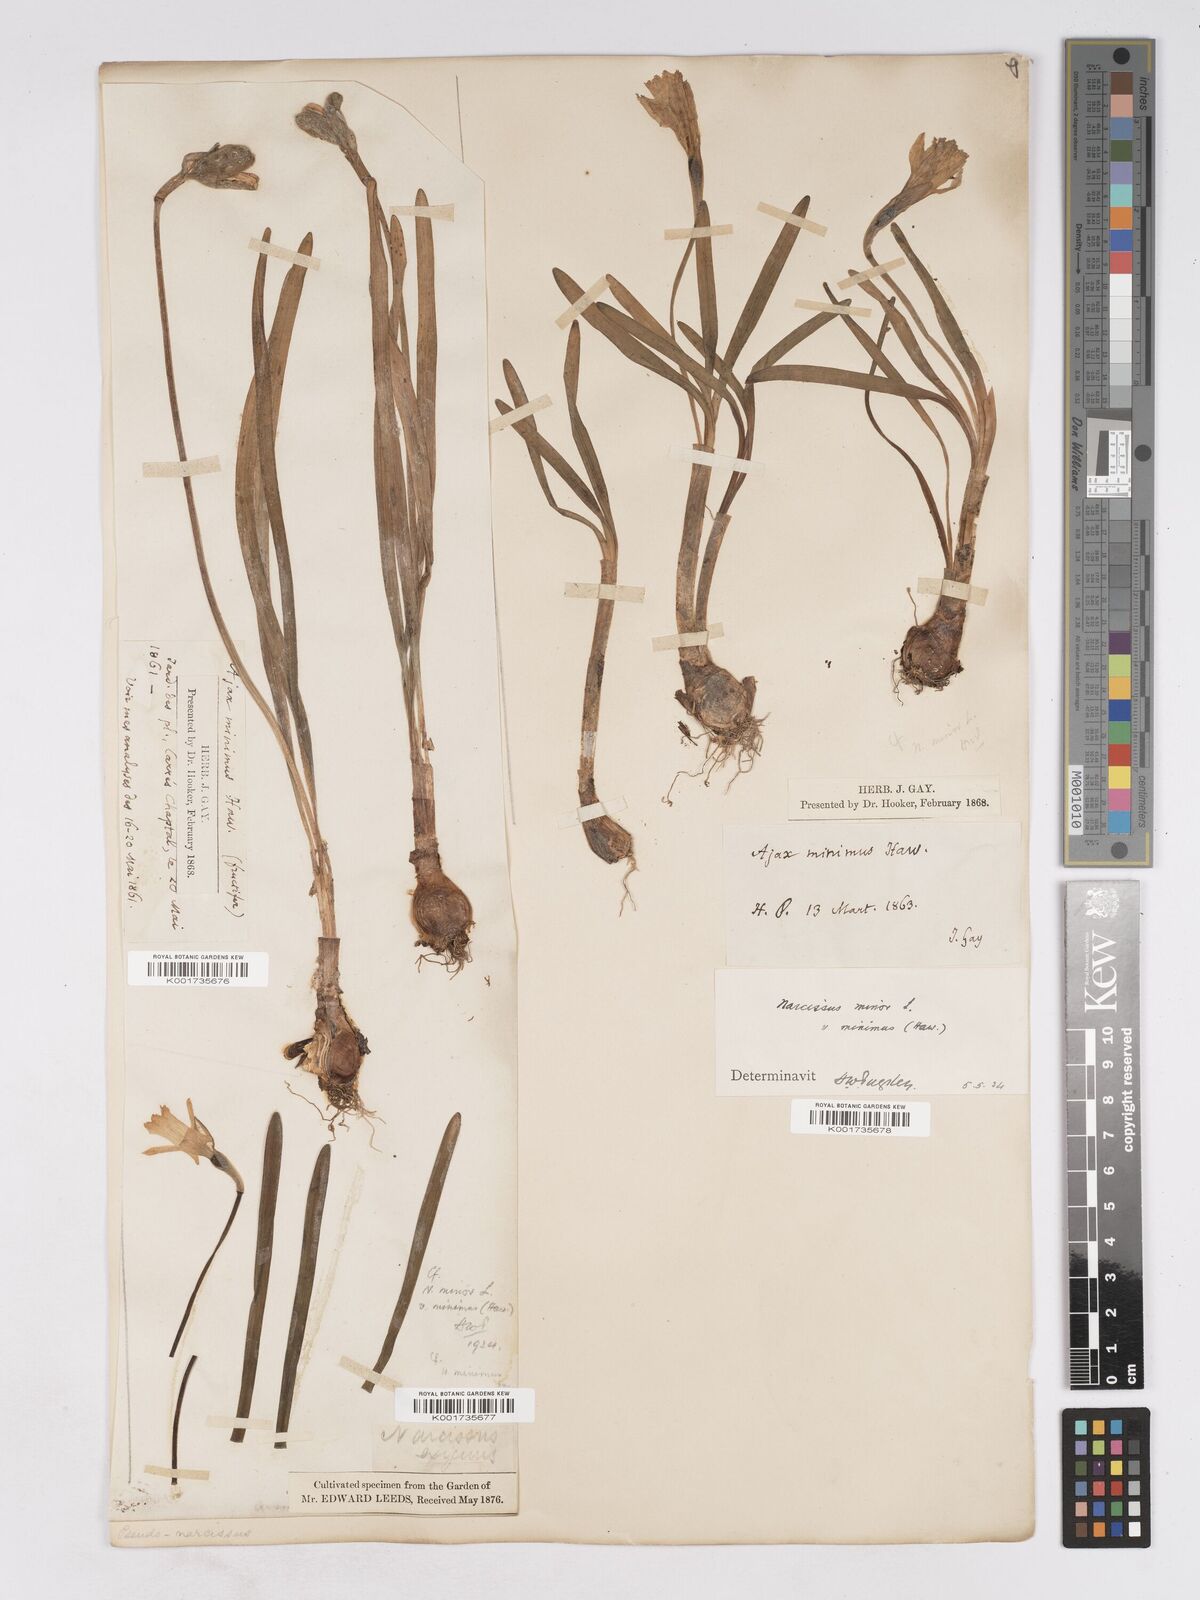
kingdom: Plantae
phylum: Tracheophyta
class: Liliopsida
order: Asparagales
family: Amaryllidaceae
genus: Narcissus
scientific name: Narcissus minor
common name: Lesser daffodil
